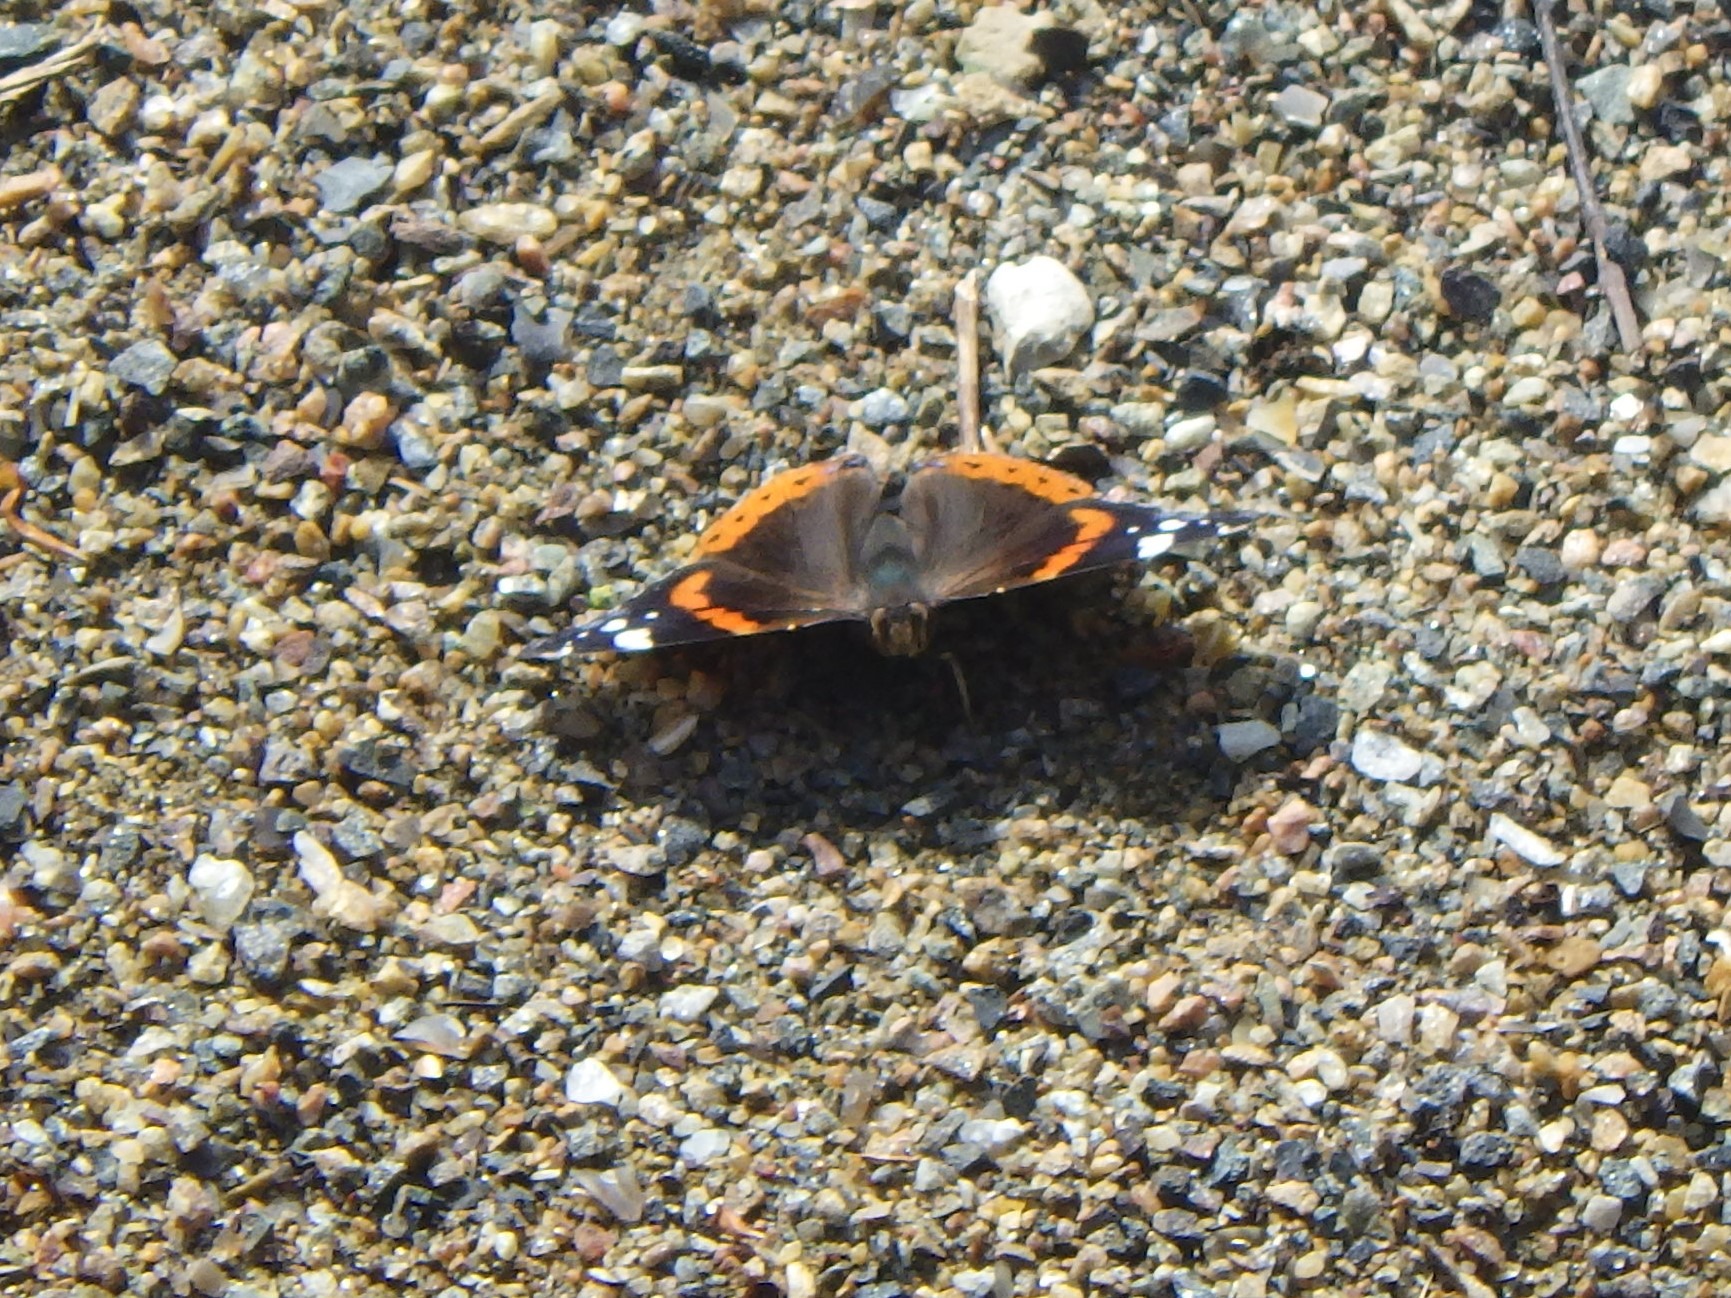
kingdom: Animalia
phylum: Arthropoda
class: Insecta
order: Lepidoptera
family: Nymphalidae
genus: Vanessa
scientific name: Vanessa atalanta
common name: Admiral
